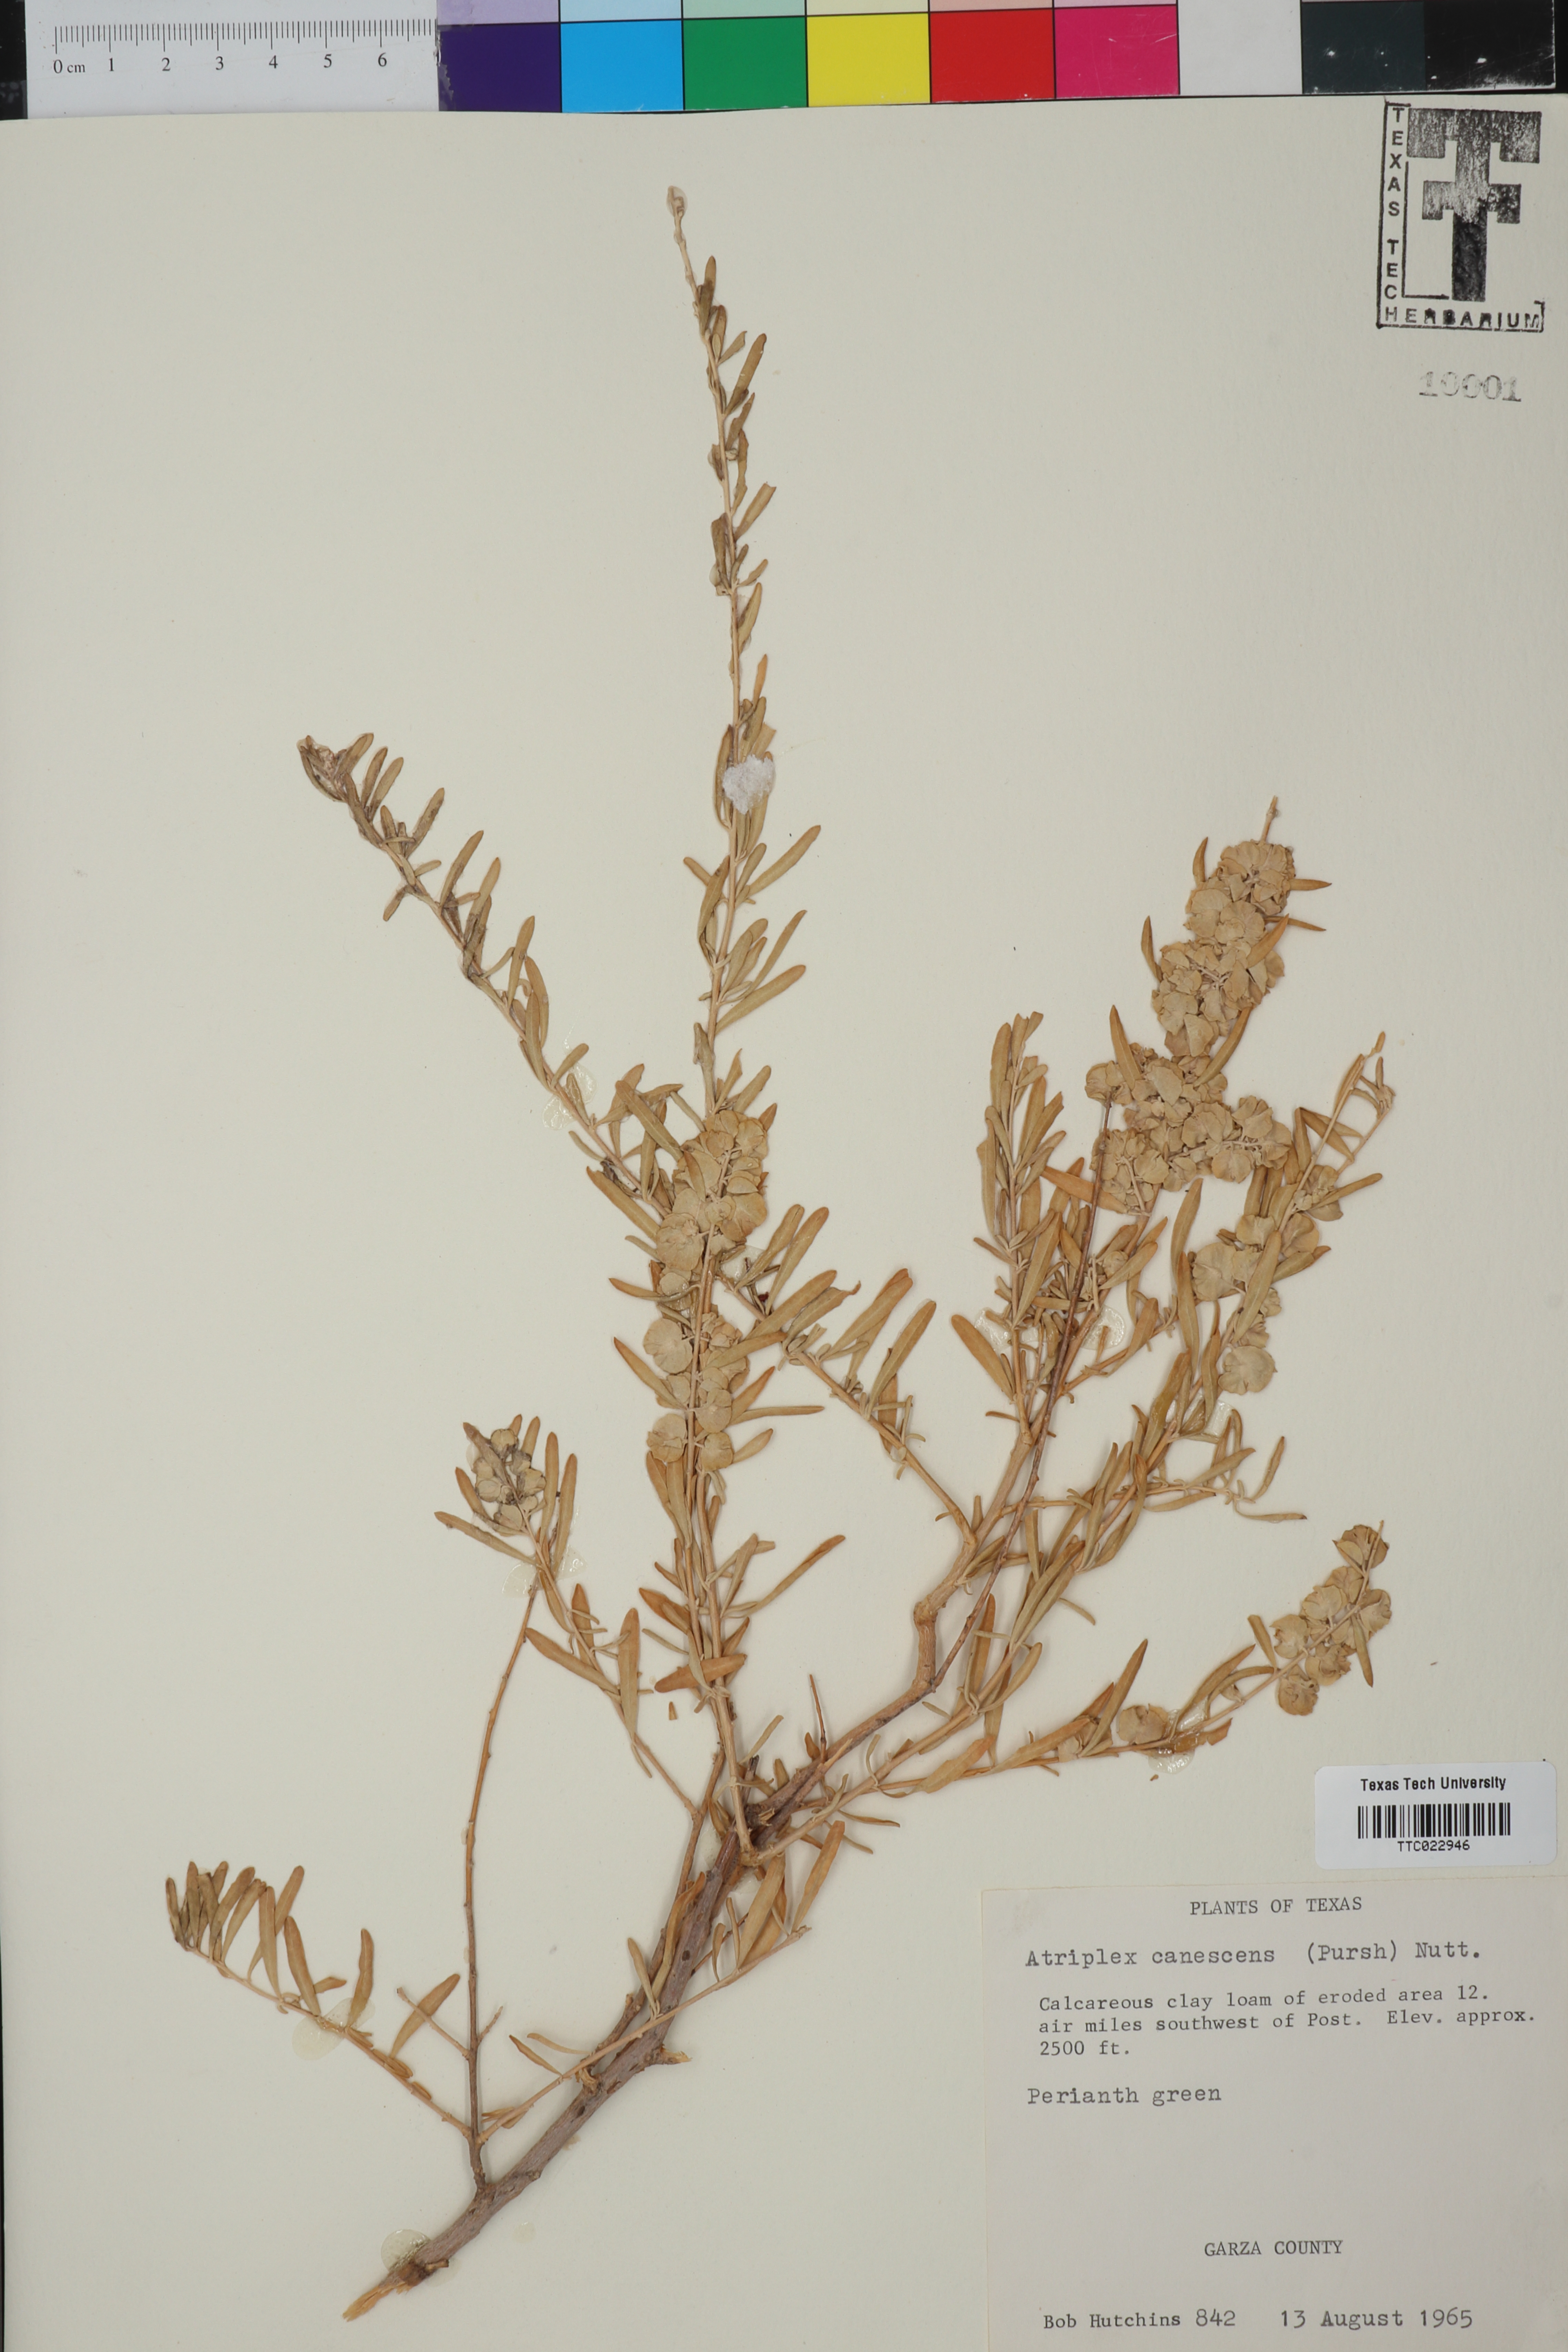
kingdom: Plantae
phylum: Tracheophyta
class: Magnoliopsida
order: Caryophyllales
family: Amaranthaceae
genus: Atriplex
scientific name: Atriplex canescens
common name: Four-wing saltbush
